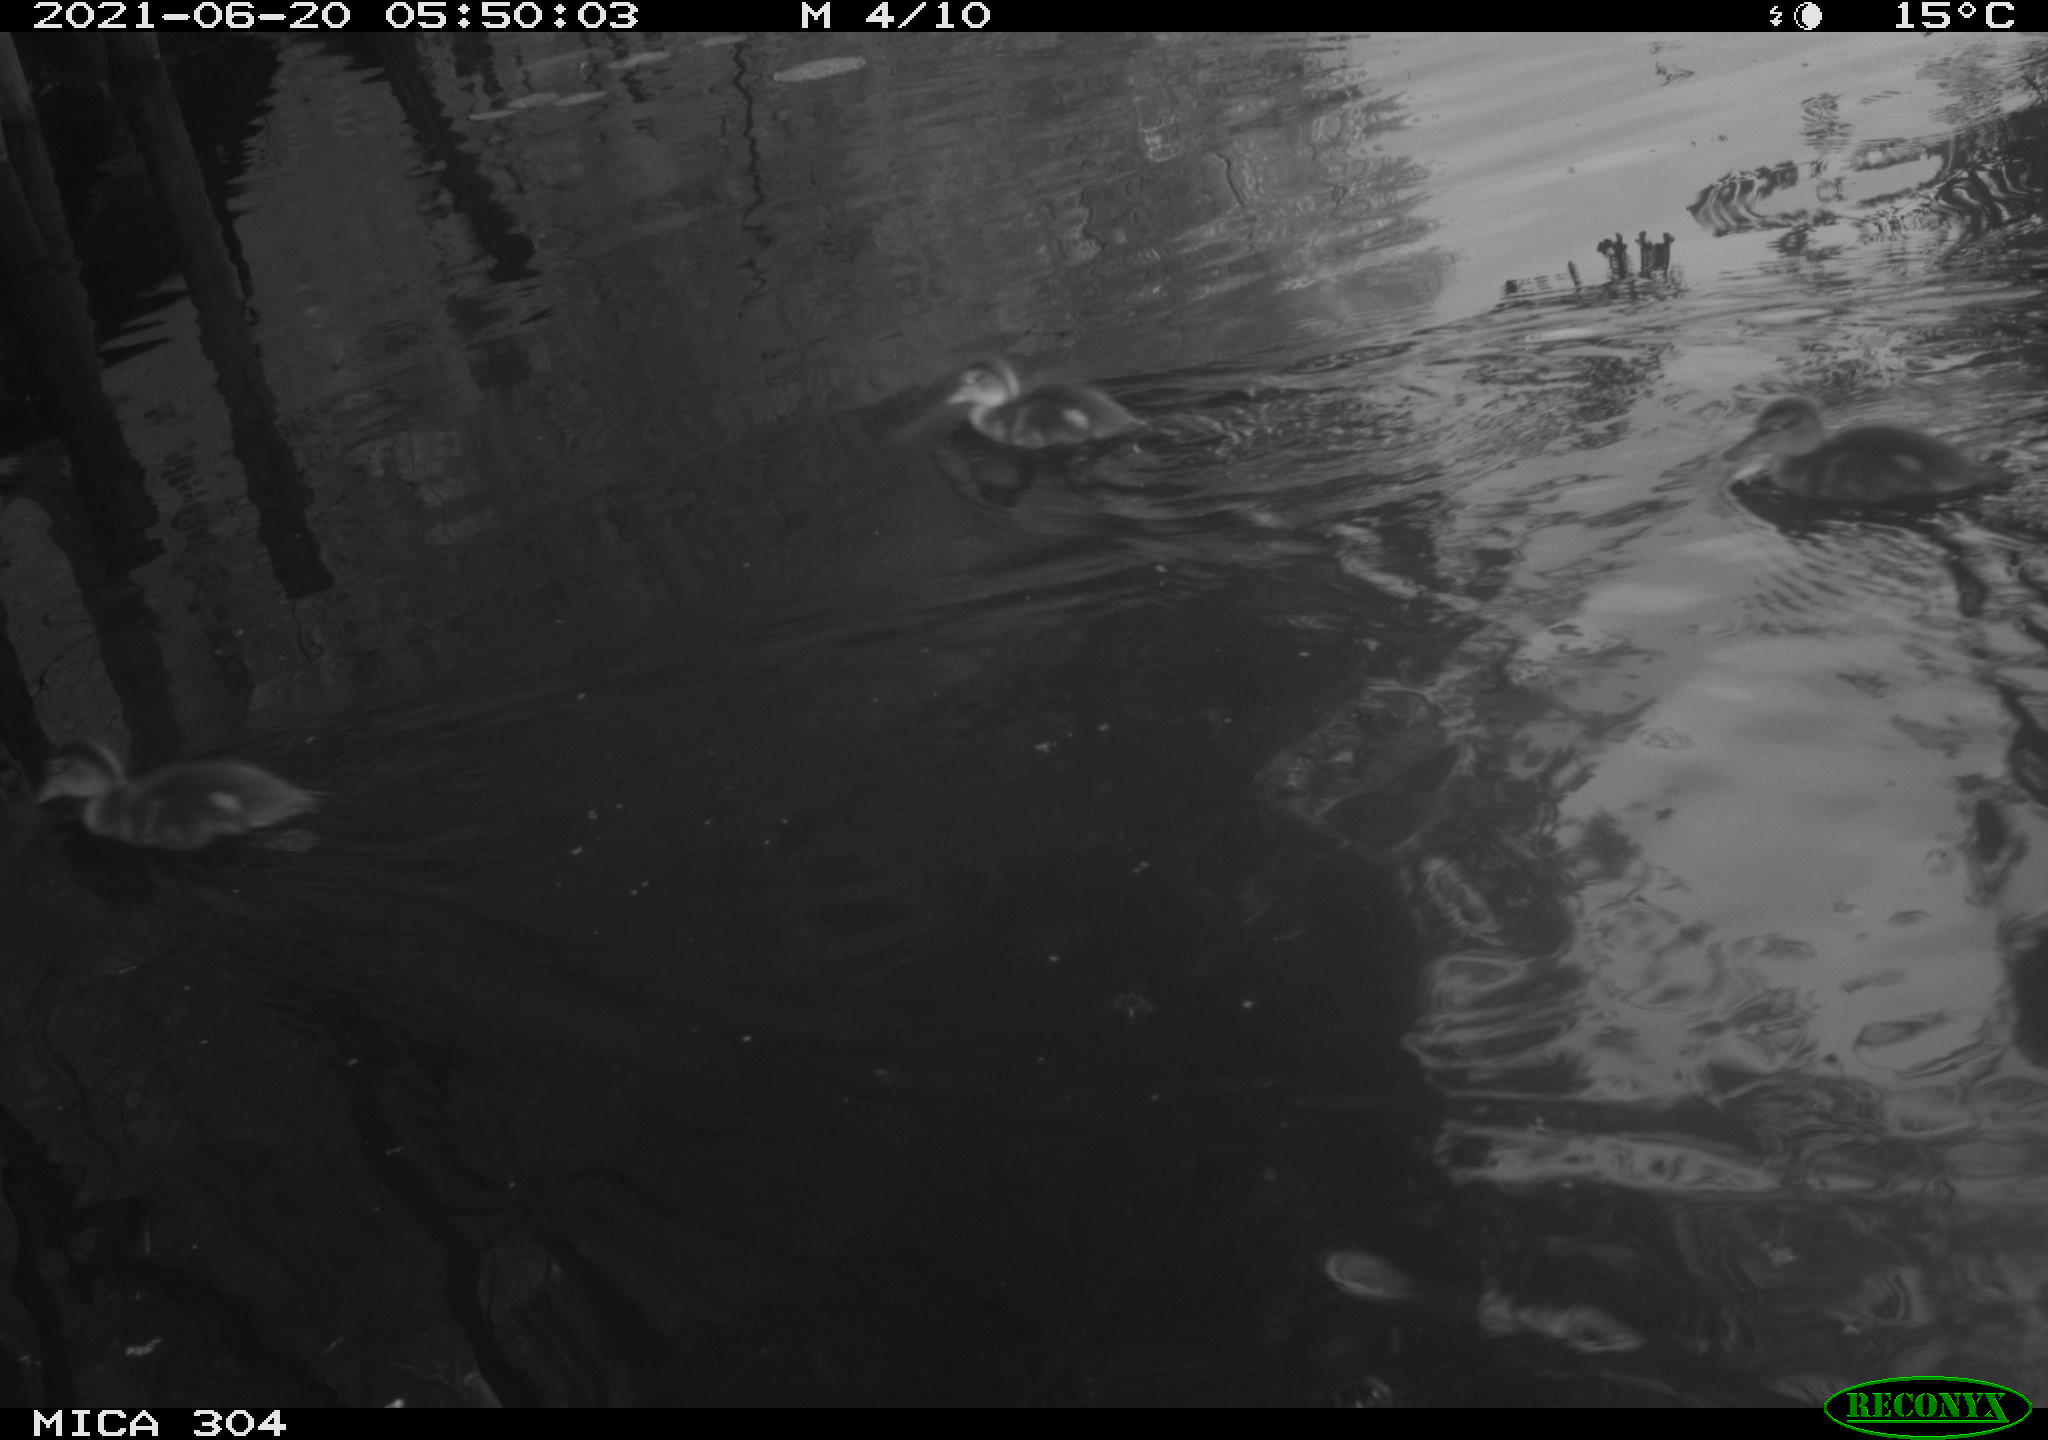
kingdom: Animalia
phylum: Chordata
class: Aves
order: Anseriformes
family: Anatidae
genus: Anas
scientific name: Anas platyrhynchos
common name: Mallard
